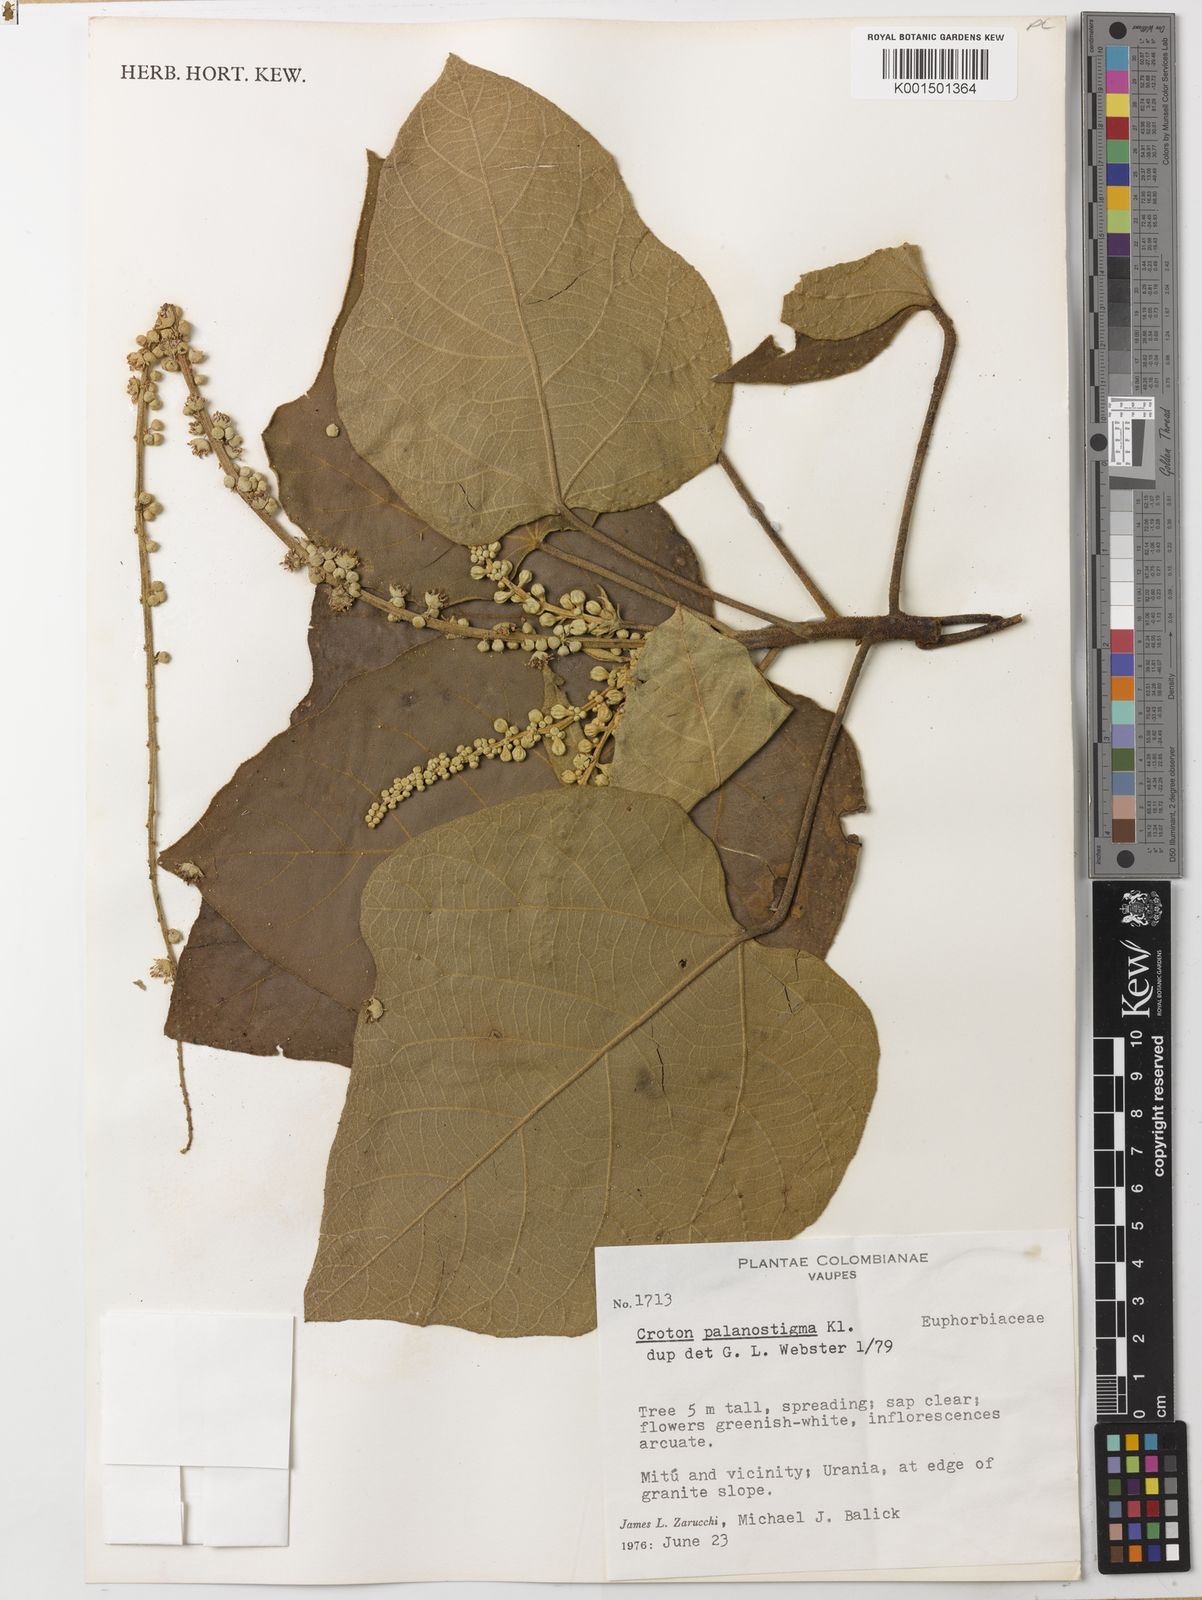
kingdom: Plantae
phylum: Tracheophyta
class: Magnoliopsida
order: Malpighiales
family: Euphorbiaceae
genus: Croton
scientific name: Croton palanostigma
